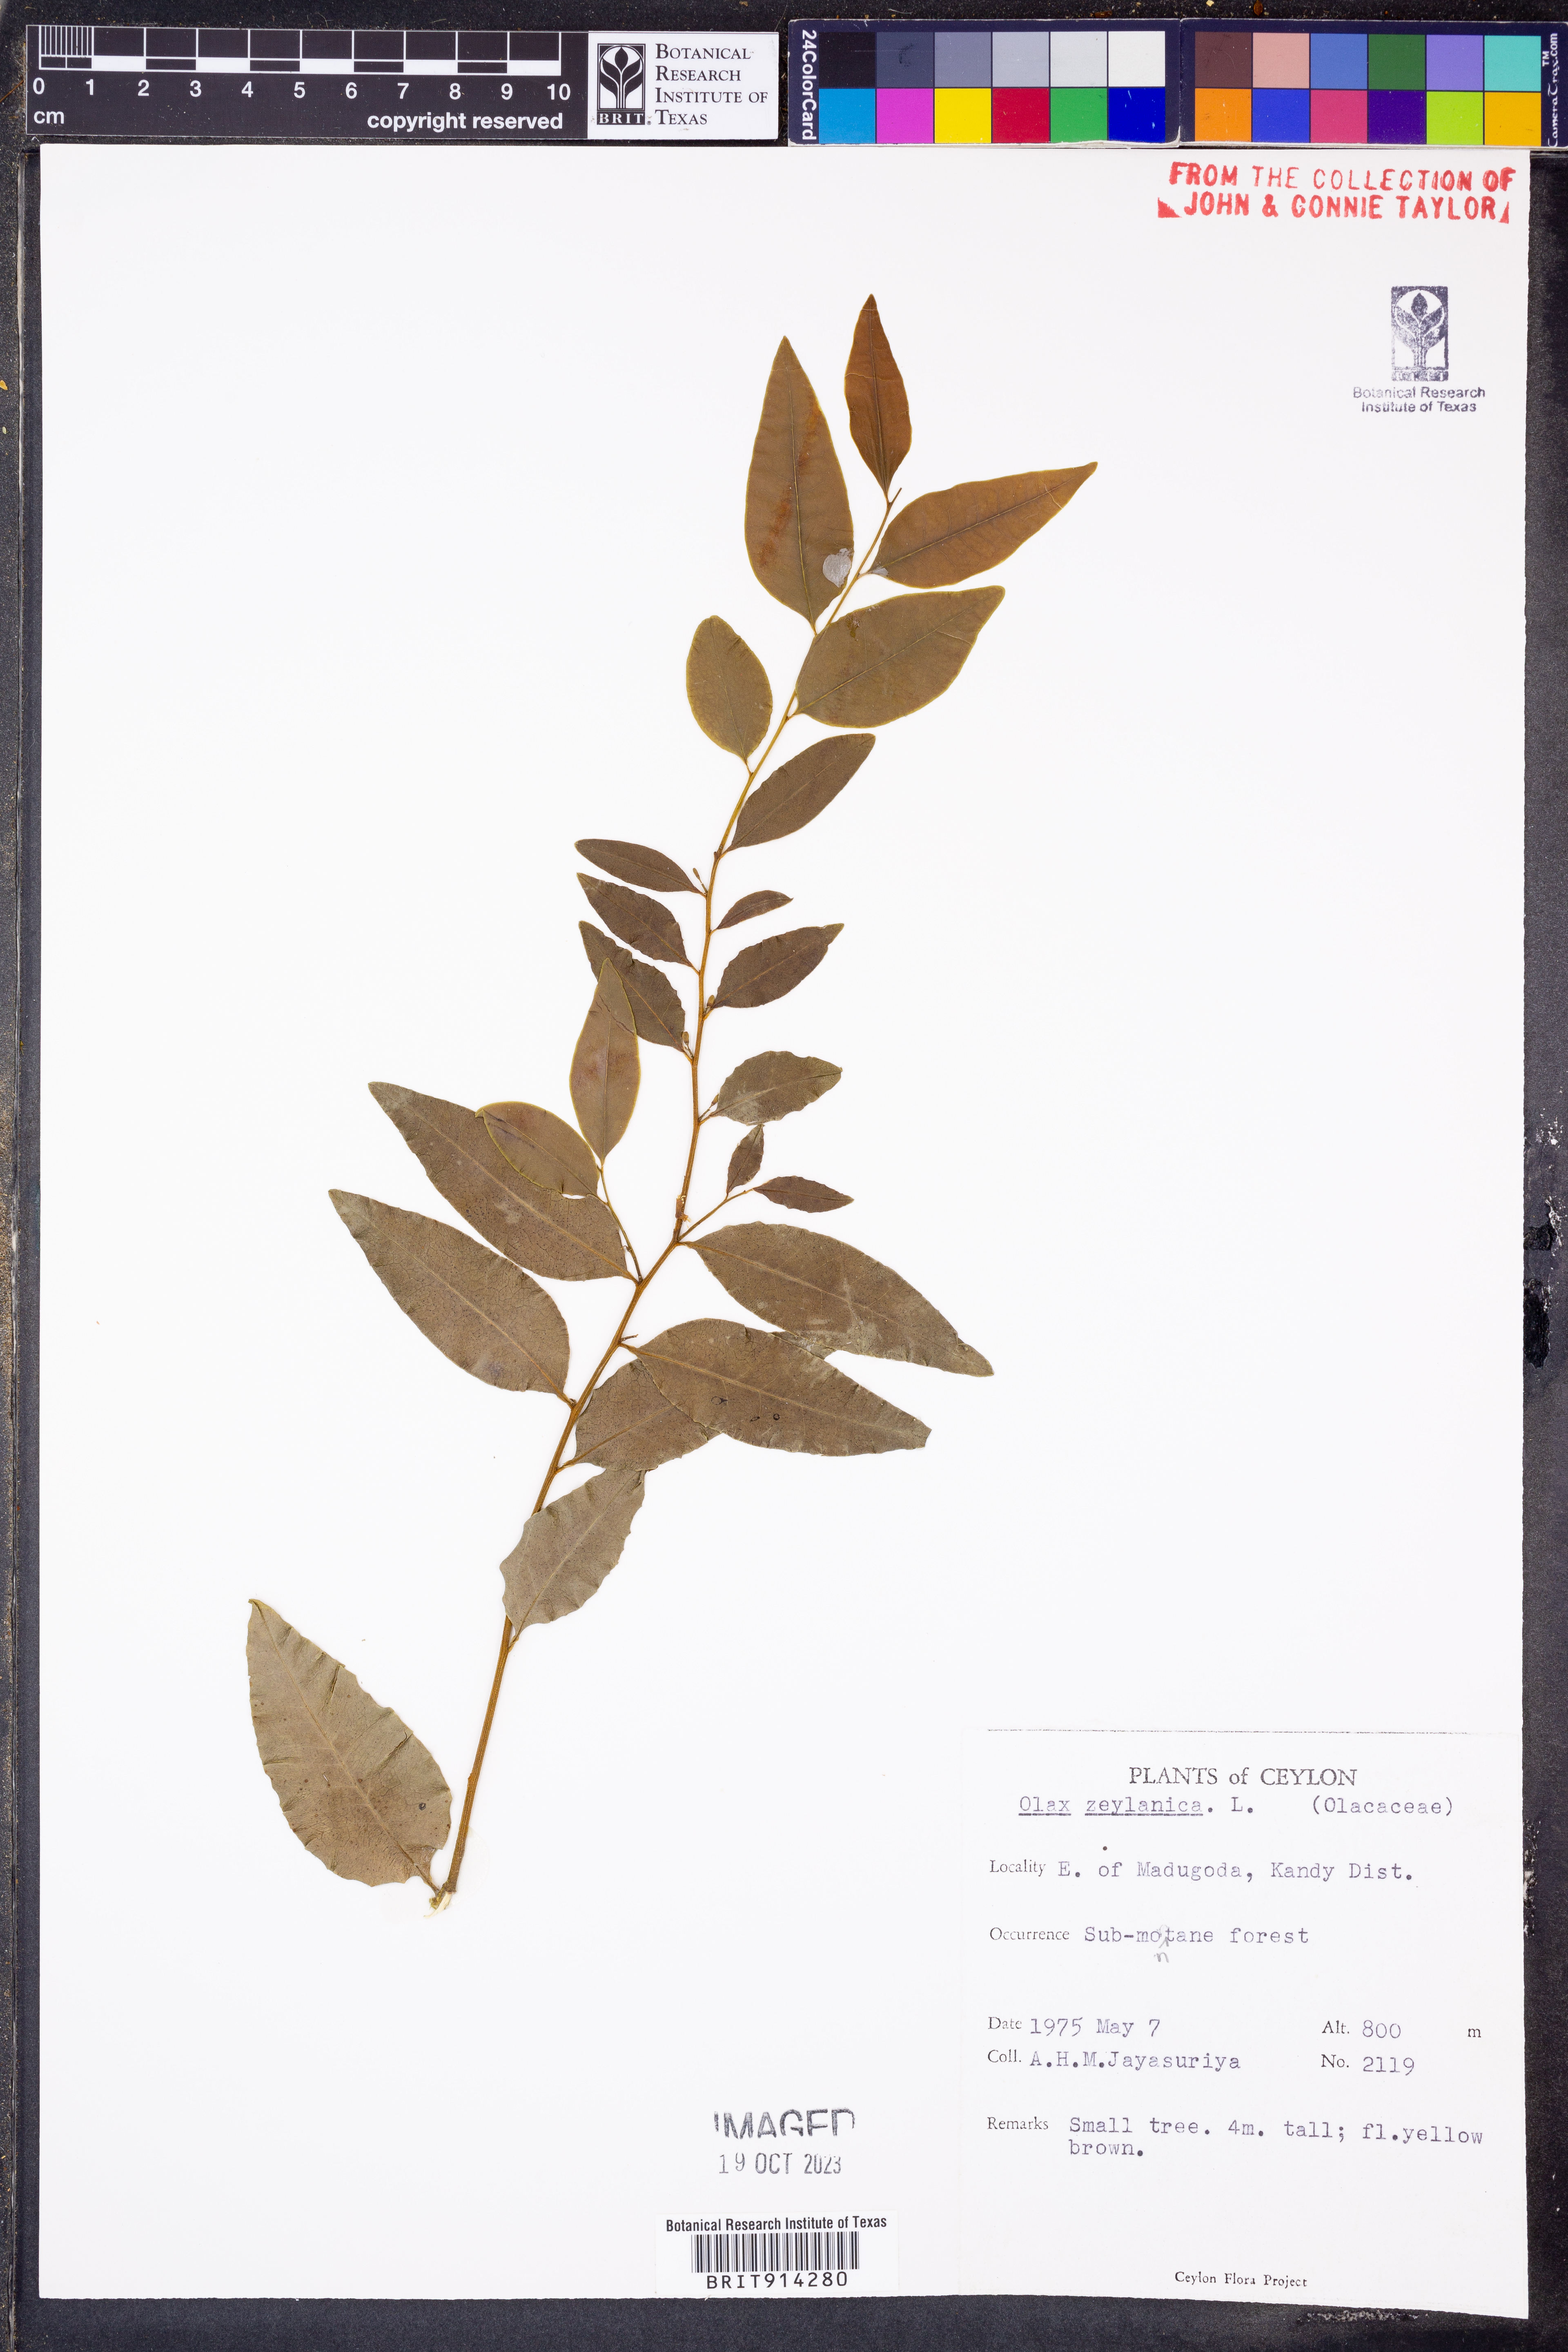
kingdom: Plantae
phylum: Tracheophyta
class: Magnoliopsida
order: Santalales
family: Olacaceae
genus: Olax
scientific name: Olax zeylanica
